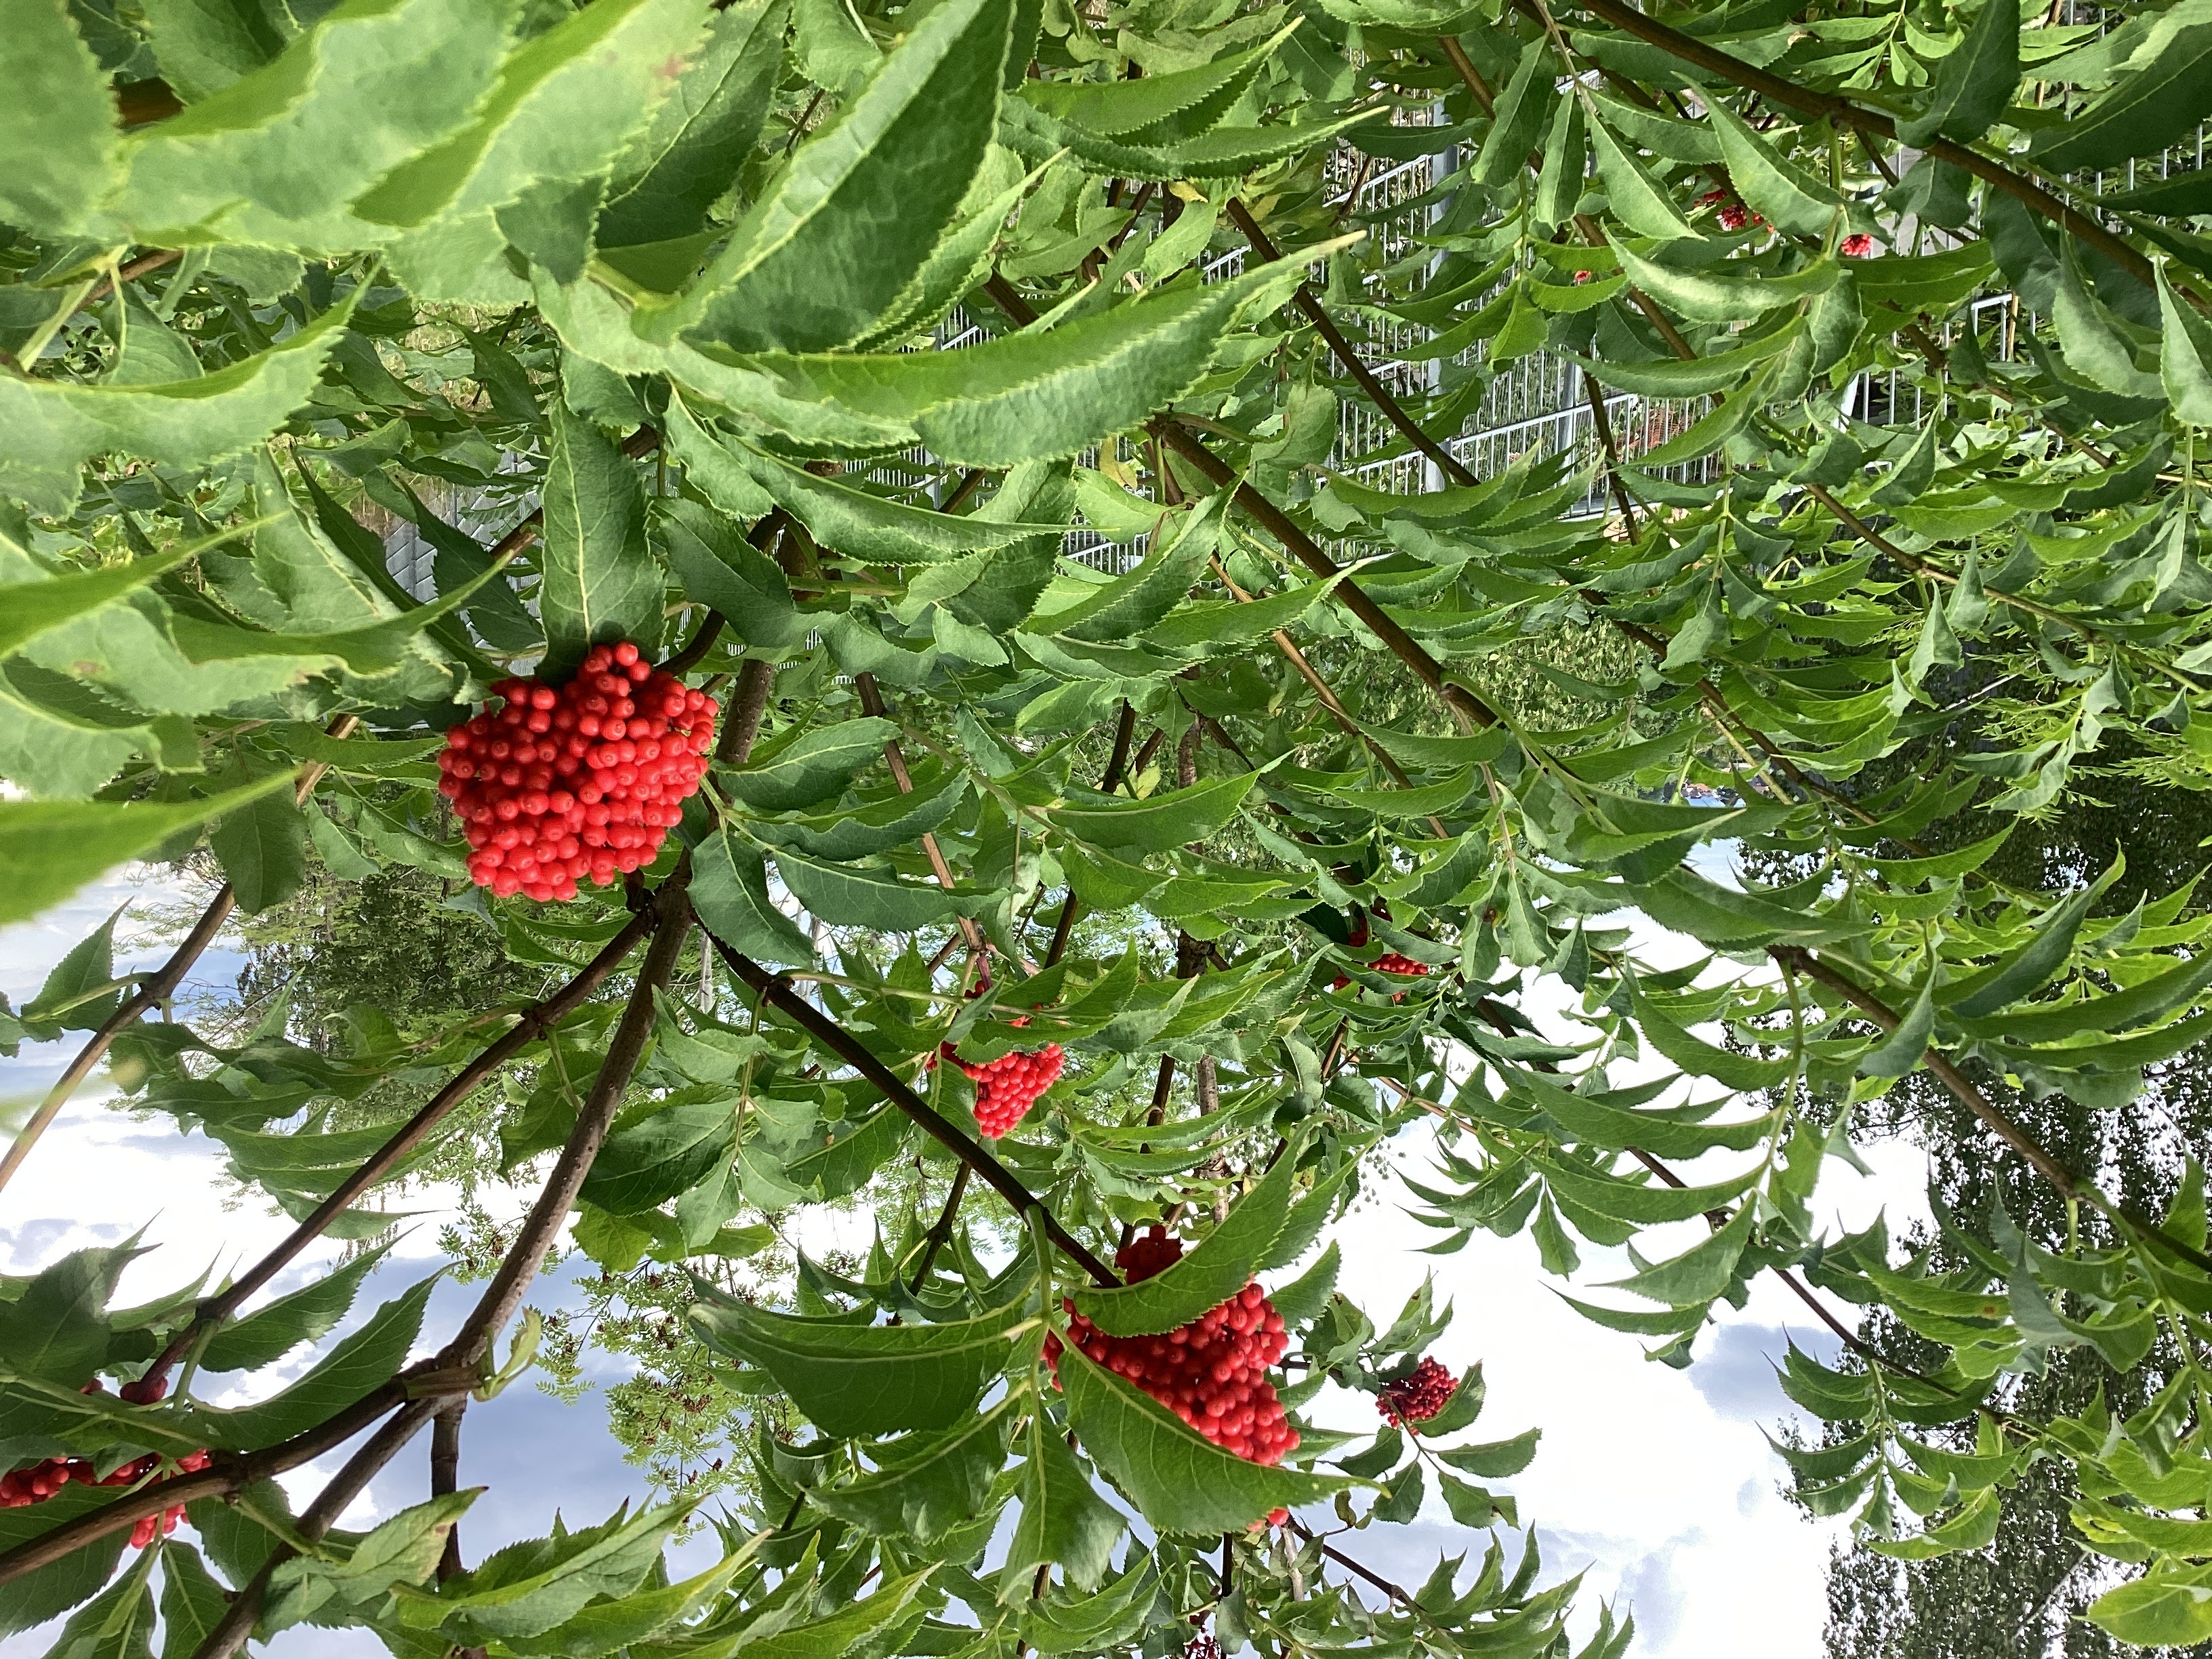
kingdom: Plantae
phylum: Tracheophyta
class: Magnoliopsida
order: Dipsacales
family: Viburnaceae
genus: Sambucus
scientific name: Sambucus racemosa
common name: rødhyll
